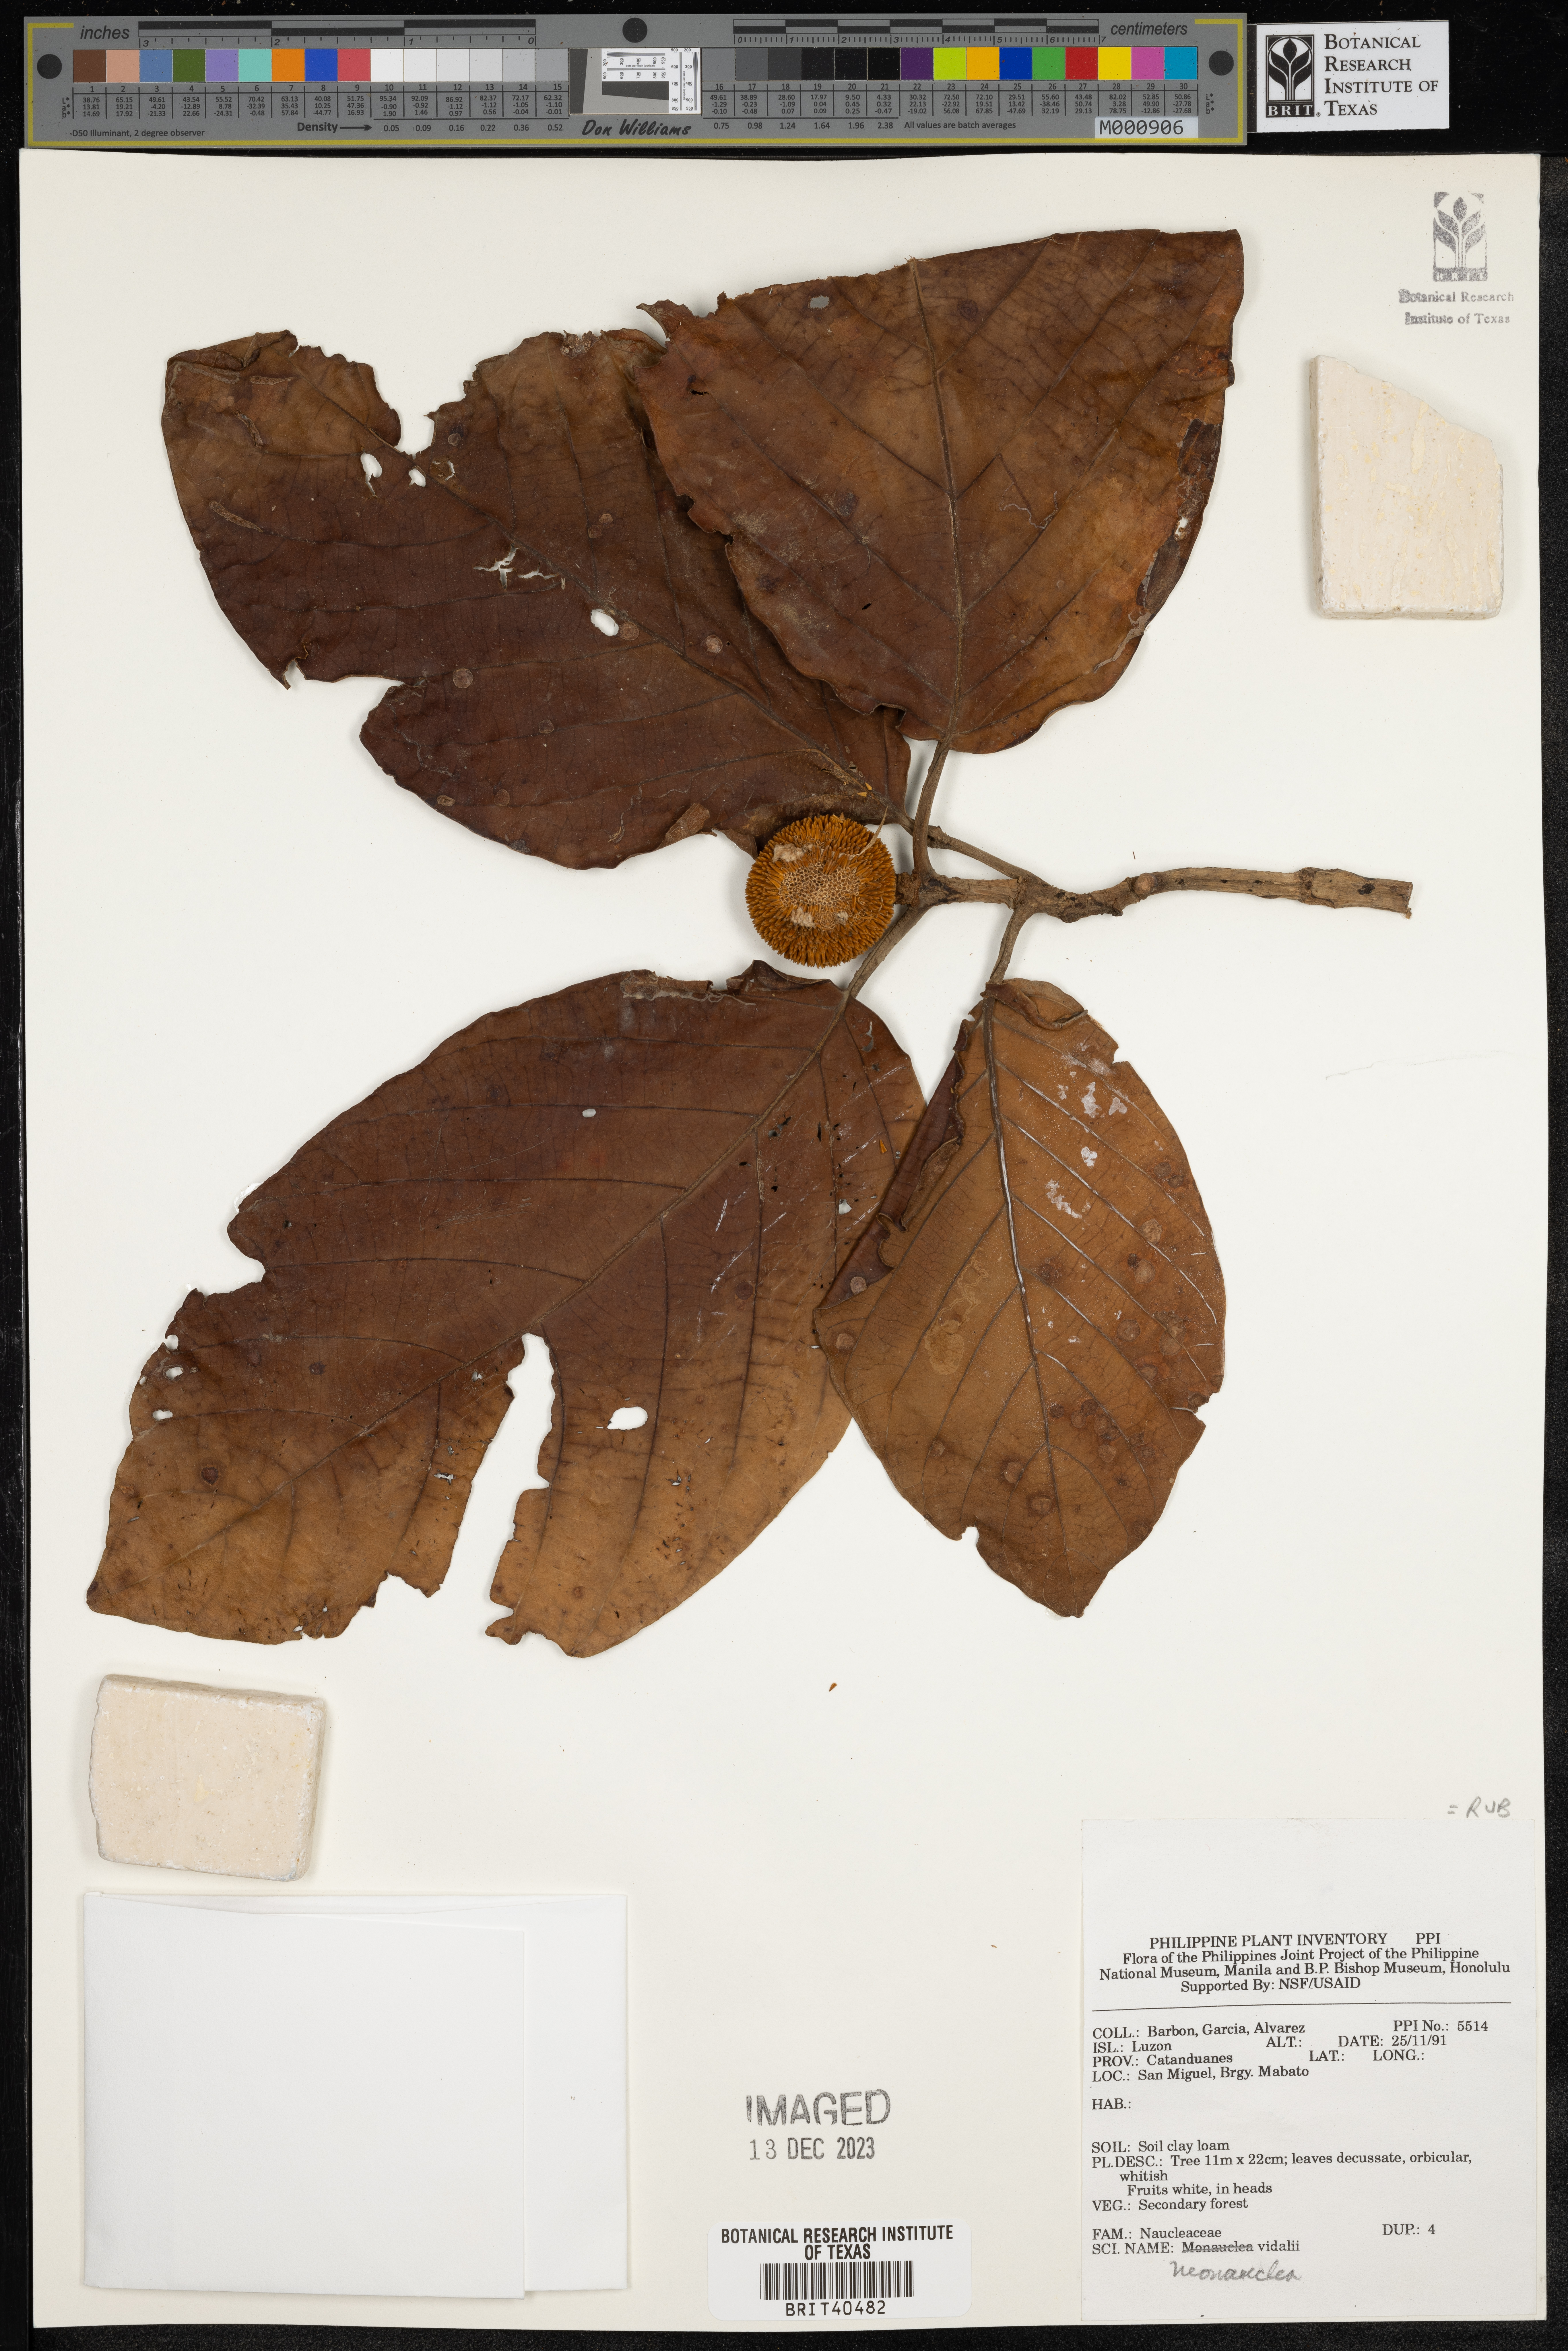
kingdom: Plantae
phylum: Tracheophyta
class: Magnoliopsida
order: Gentianales
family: Rubiaceae
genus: Neonauclea
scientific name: Neonauclea bartlingii
